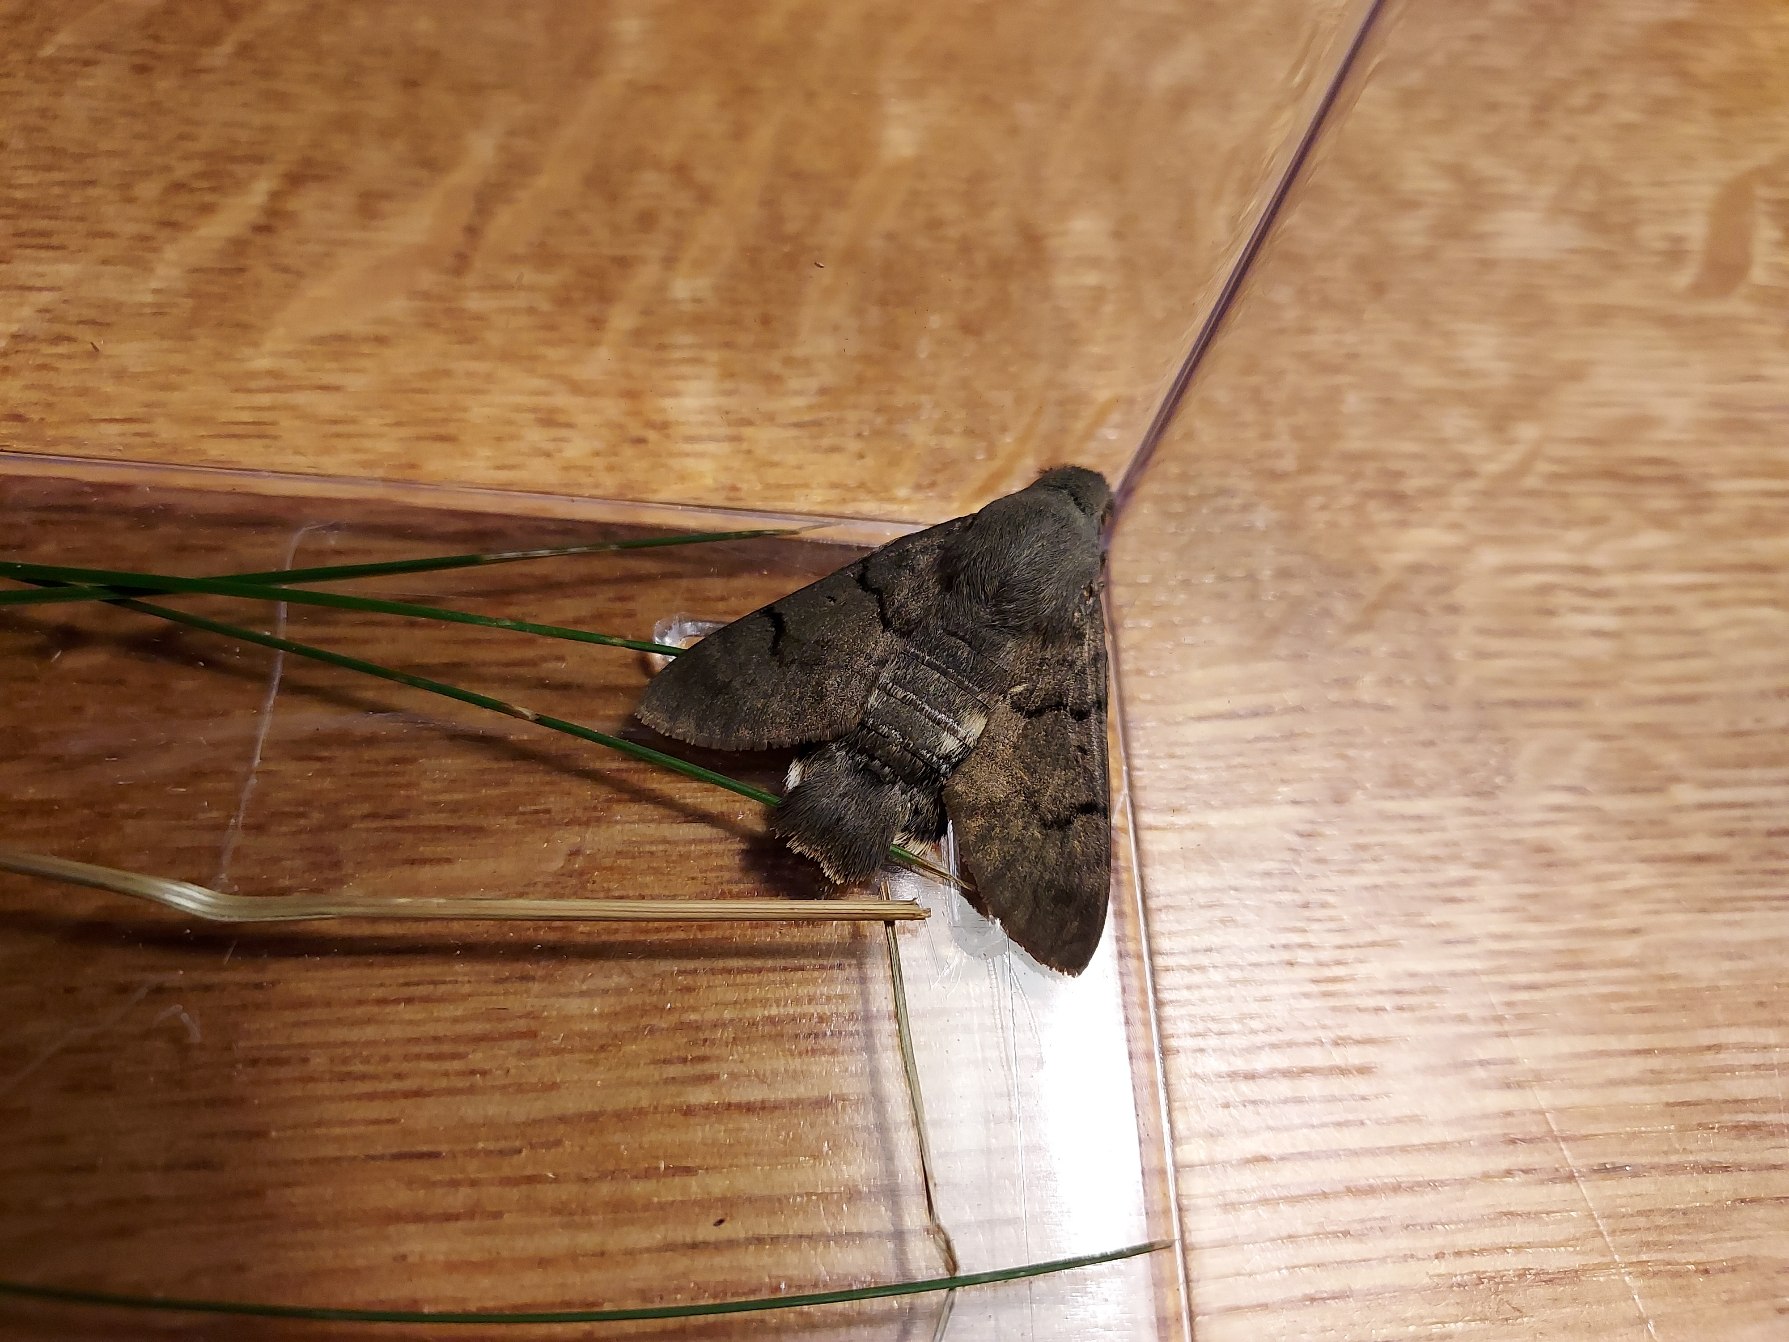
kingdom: Animalia
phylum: Arthropoda
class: Insecta
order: Lepidoptera
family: Sphingidae
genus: Macroglossum
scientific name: Macroglossum stellatarum
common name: Duehale
